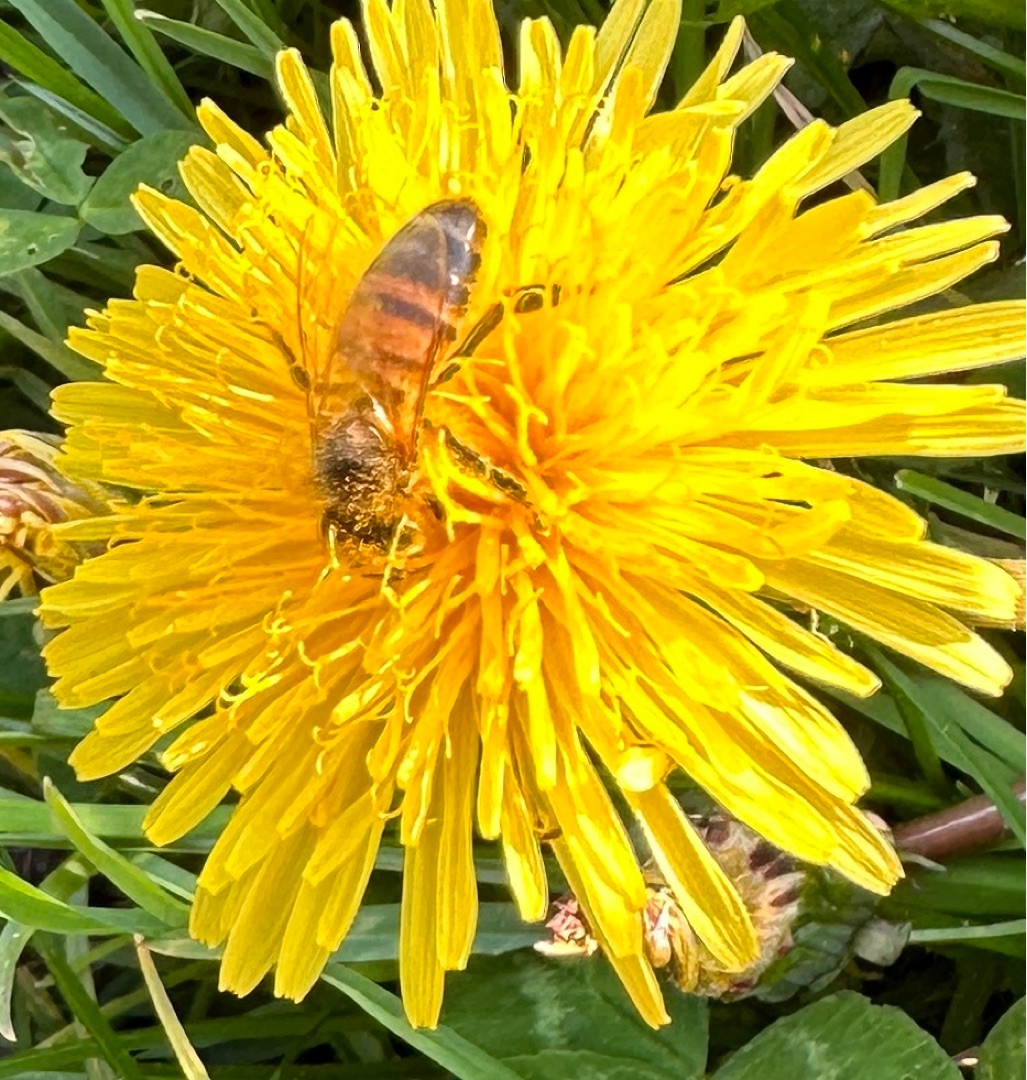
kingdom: Animalia
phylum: Arthropoda
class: Insecta
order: Hymenoptera
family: Apidae
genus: Apis
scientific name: Apis mellifera
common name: Honningbi
